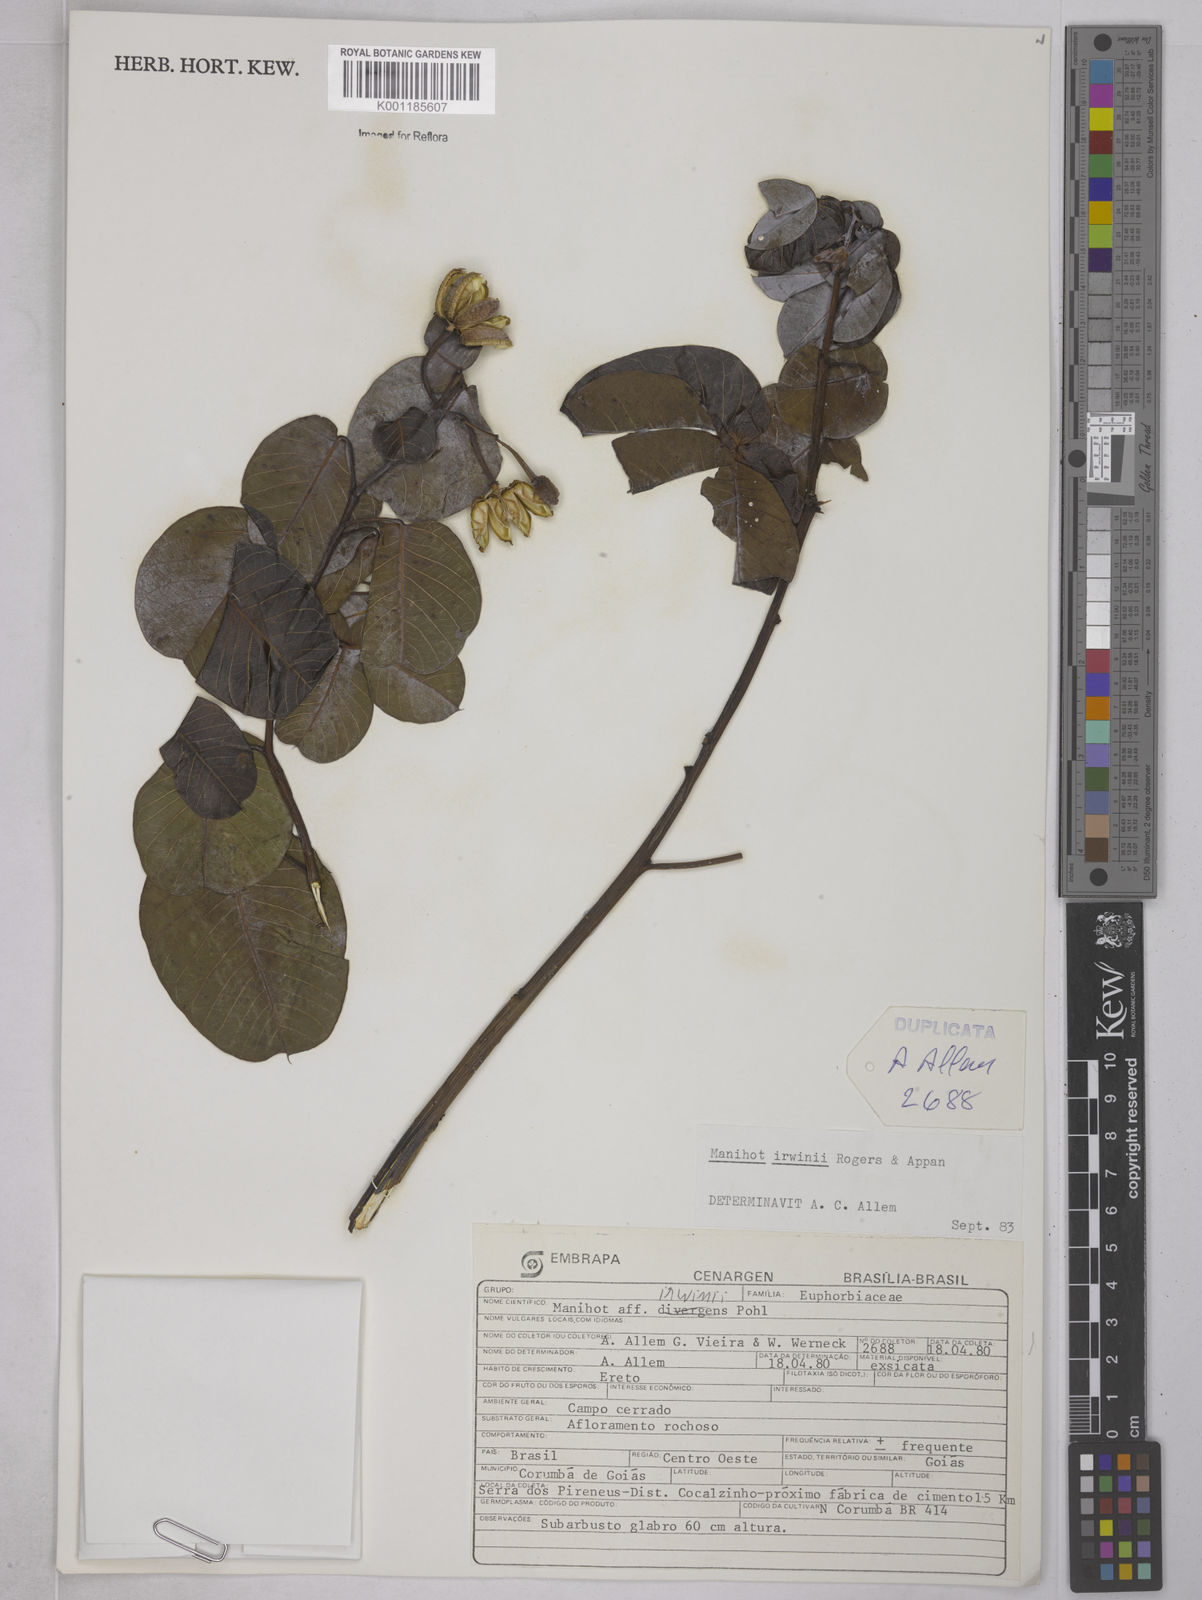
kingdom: Plantae
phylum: Tracheophyta
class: Magnoliopsida
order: Malpighiales
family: Euphorbiaceae
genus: Manihot
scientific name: Manihot irwinii
